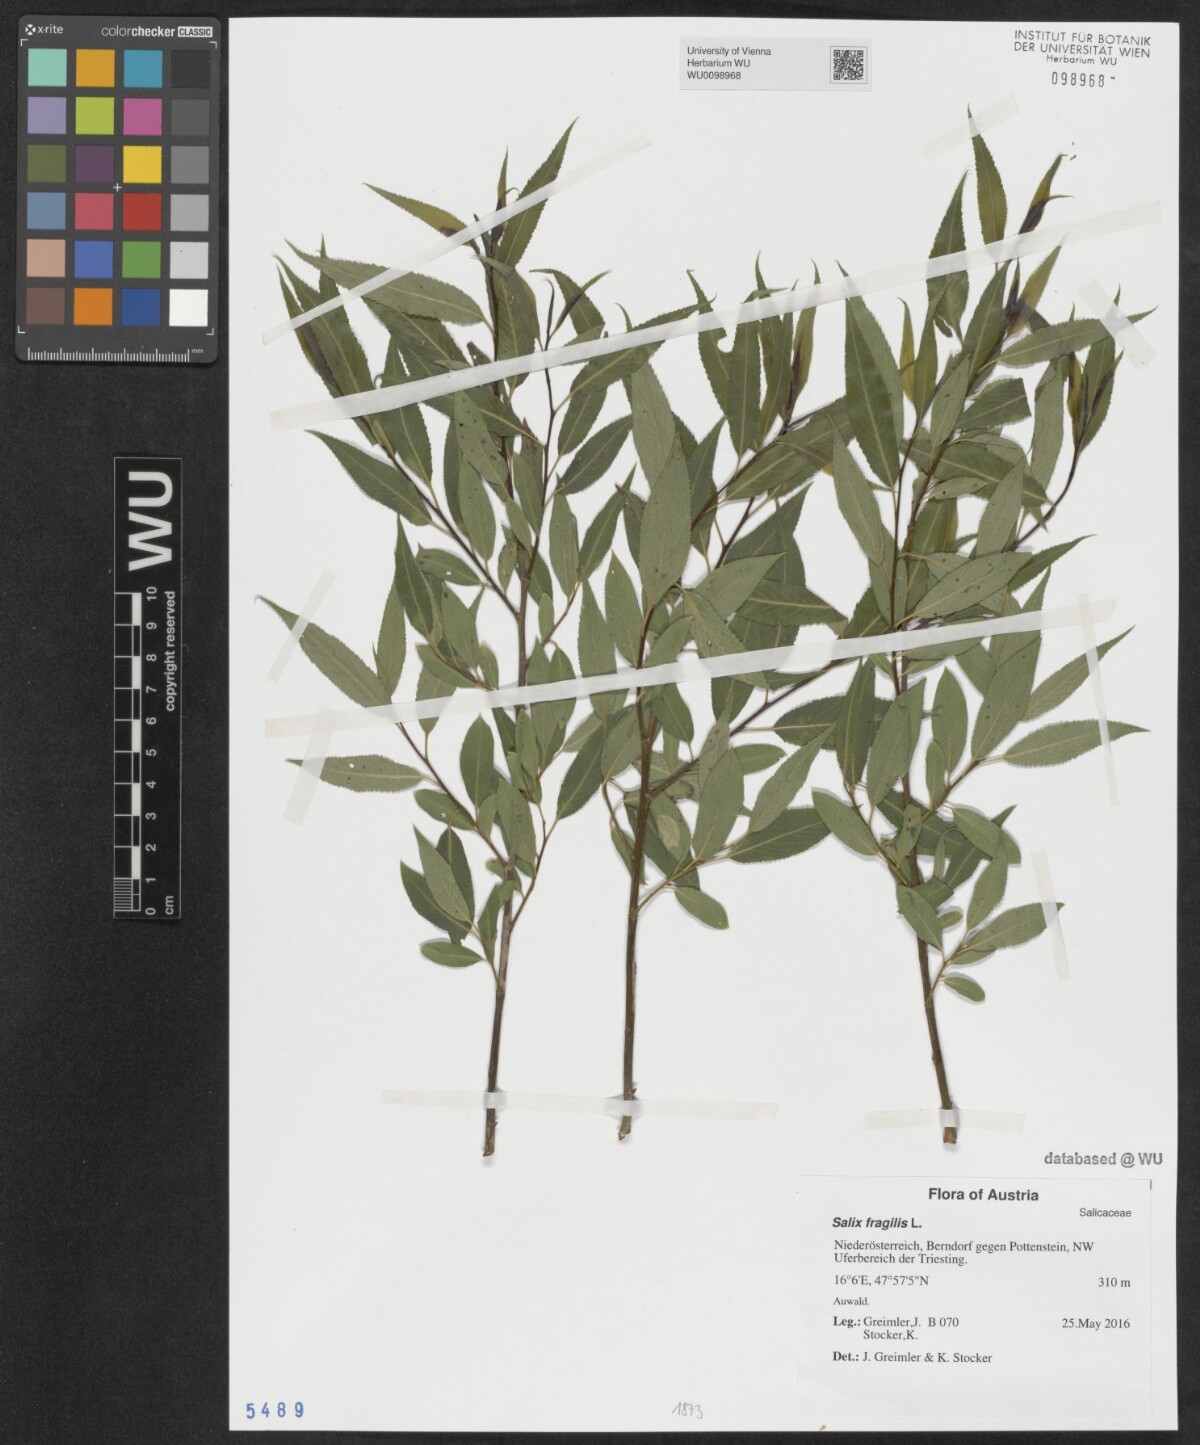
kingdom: Plantae
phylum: Tracheophyta
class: Magnoliopsida
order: Malpighiales
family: Salicaceae
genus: Salix
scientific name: Salix fragilis
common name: Crack willow
